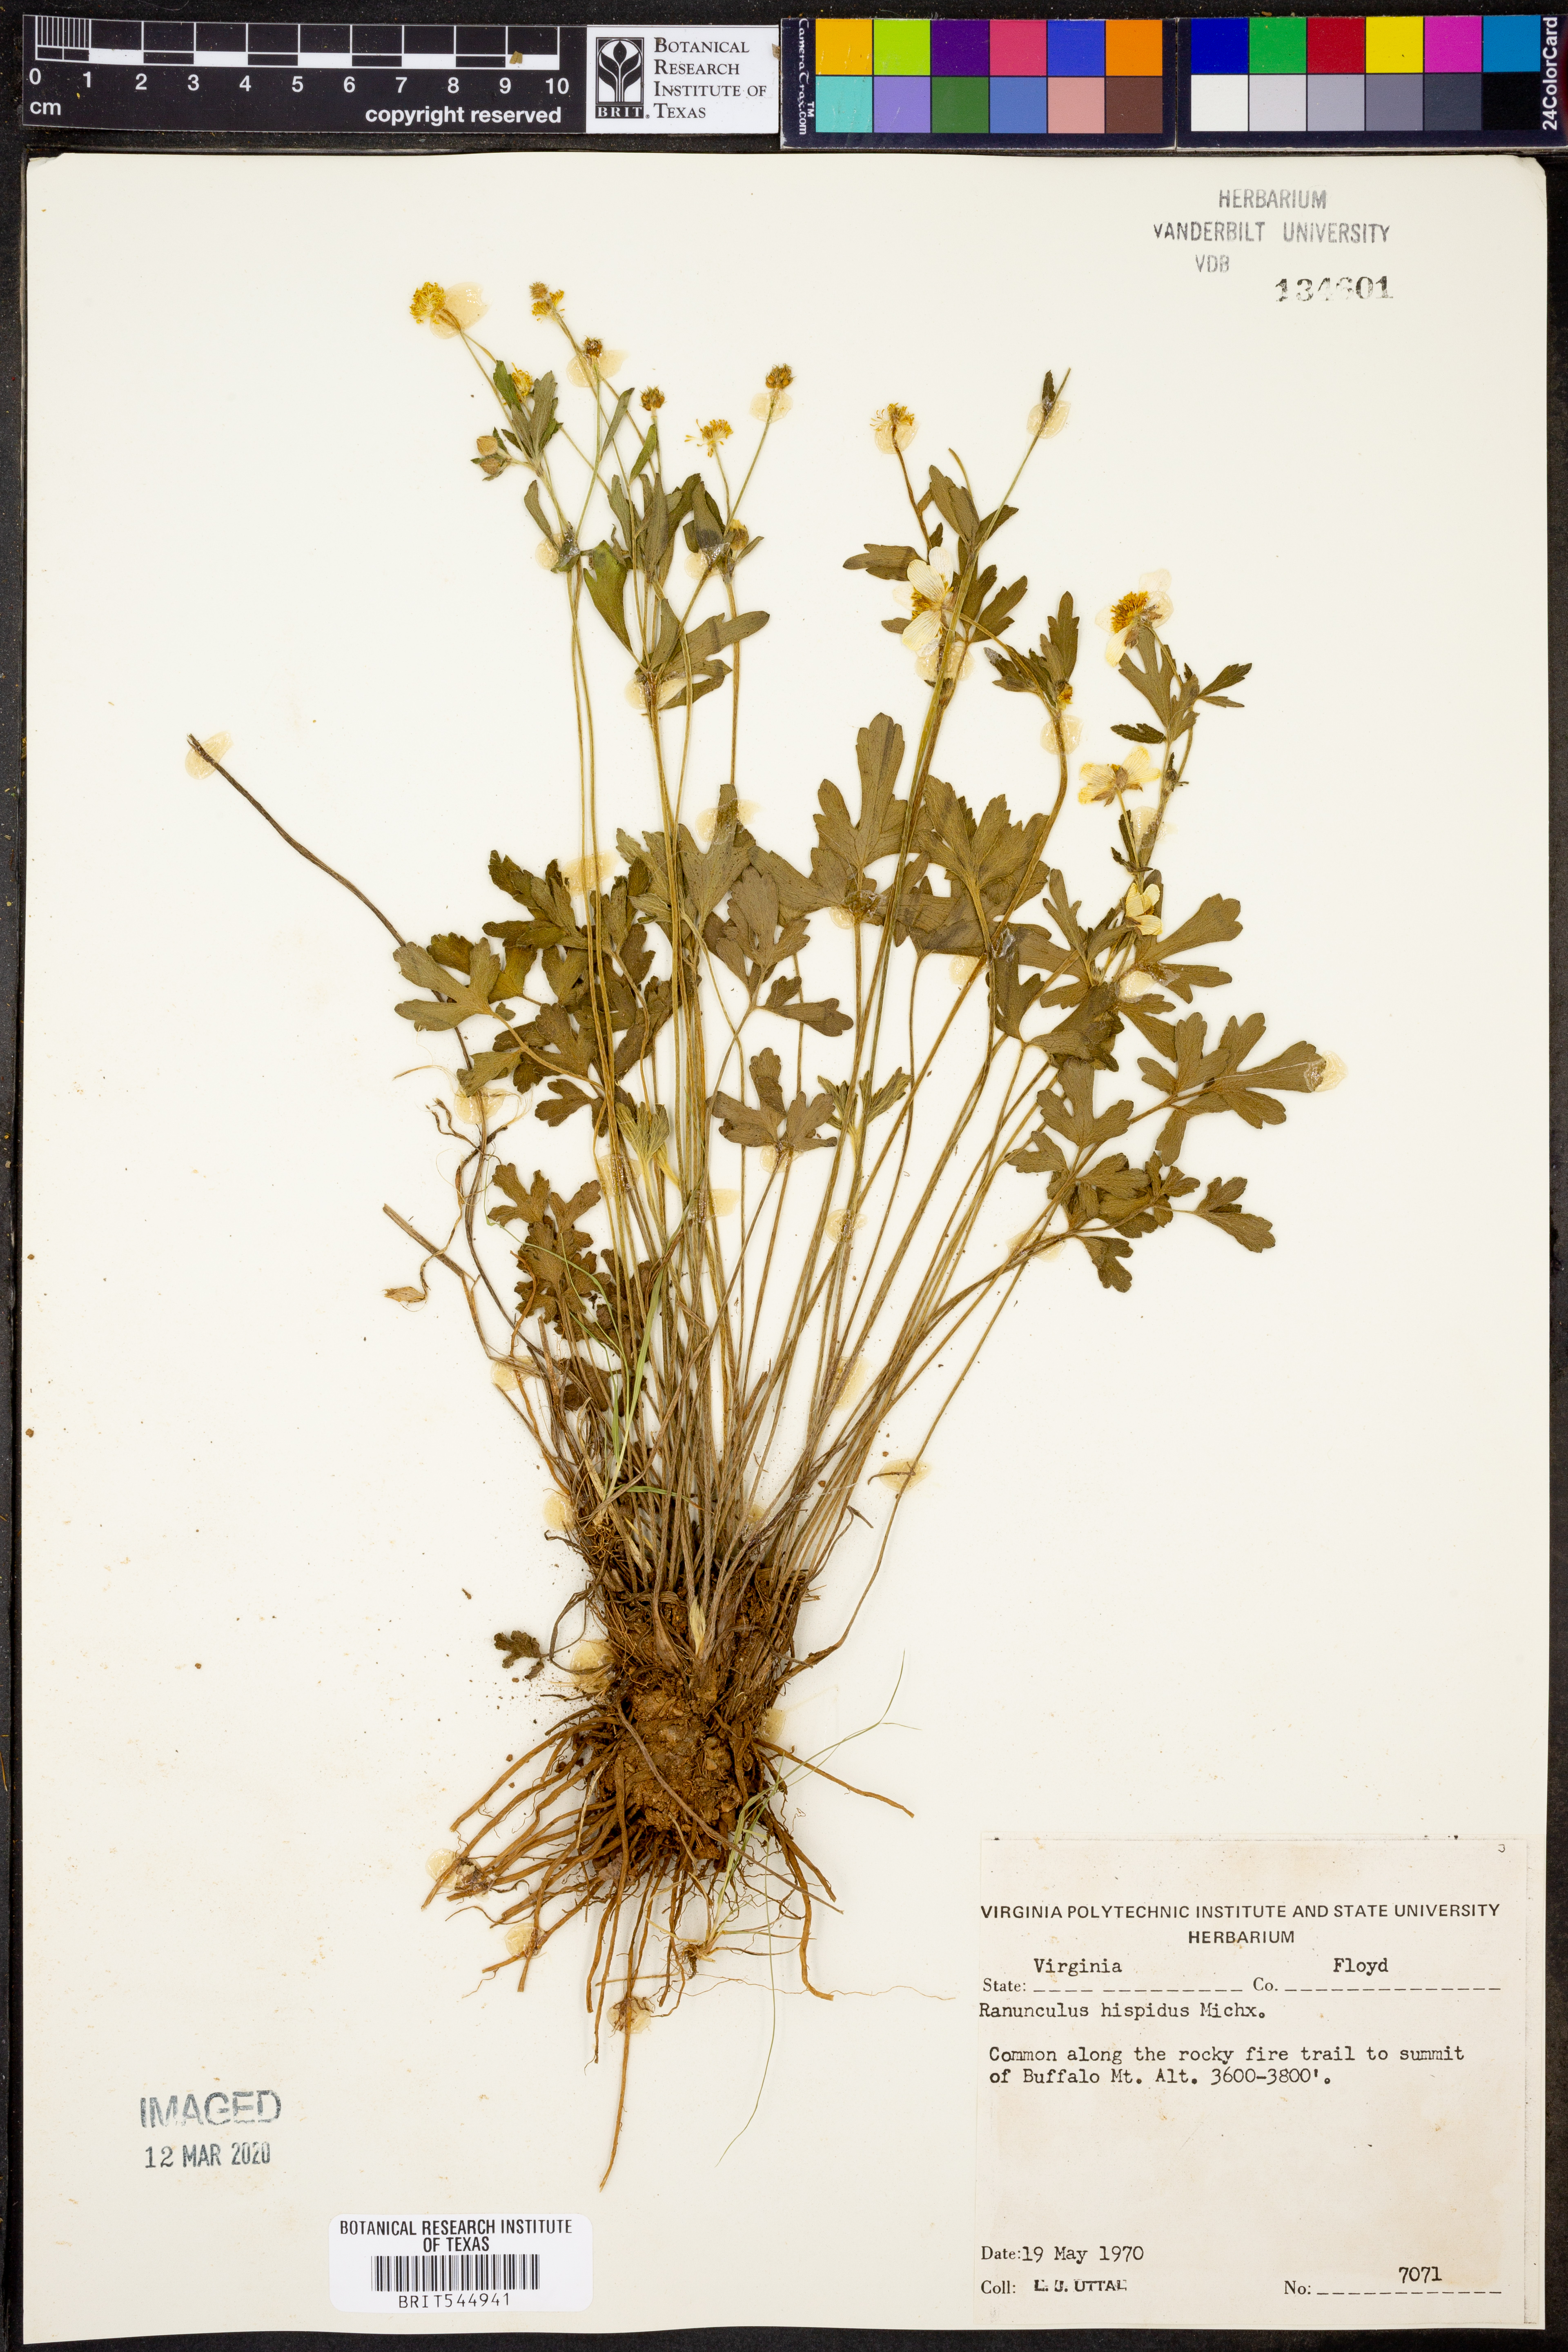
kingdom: Plantae
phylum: Tracheophyta
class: Magnoliopsida
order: Ranunculales
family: Ranunculaceae
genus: Ranunculus
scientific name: Ranunculus hispidus
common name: Bristly buttercup
